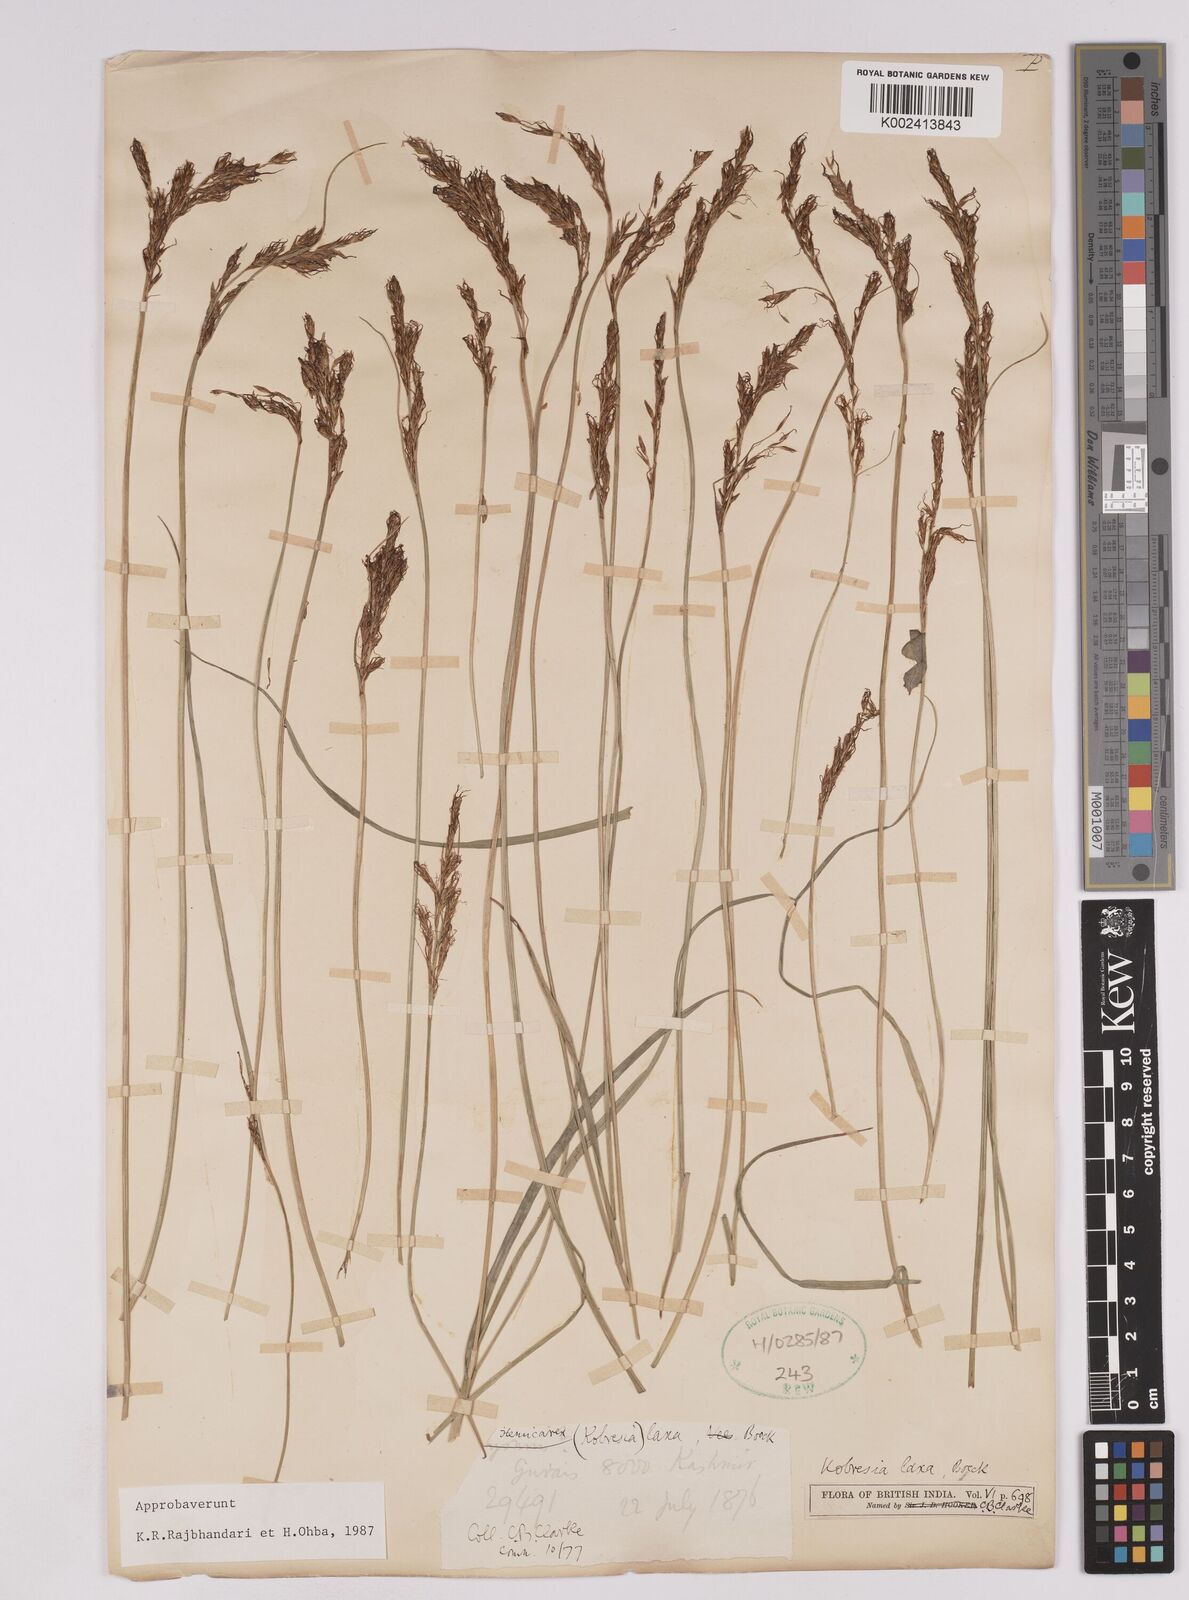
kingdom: Plantae
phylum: Tracheophyta
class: Liliopsida
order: Poales
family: Cyperaceae
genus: Carex
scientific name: Carex
